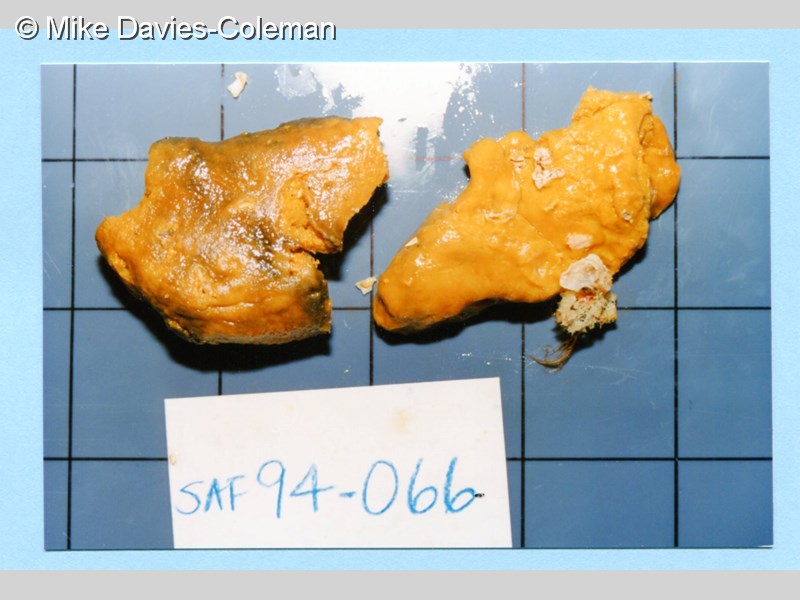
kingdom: Animalia
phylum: Porifera
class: Demospongiae
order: Poecilosclerida
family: Guitarridae
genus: Guitarra
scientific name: Guitarra fimbriata
